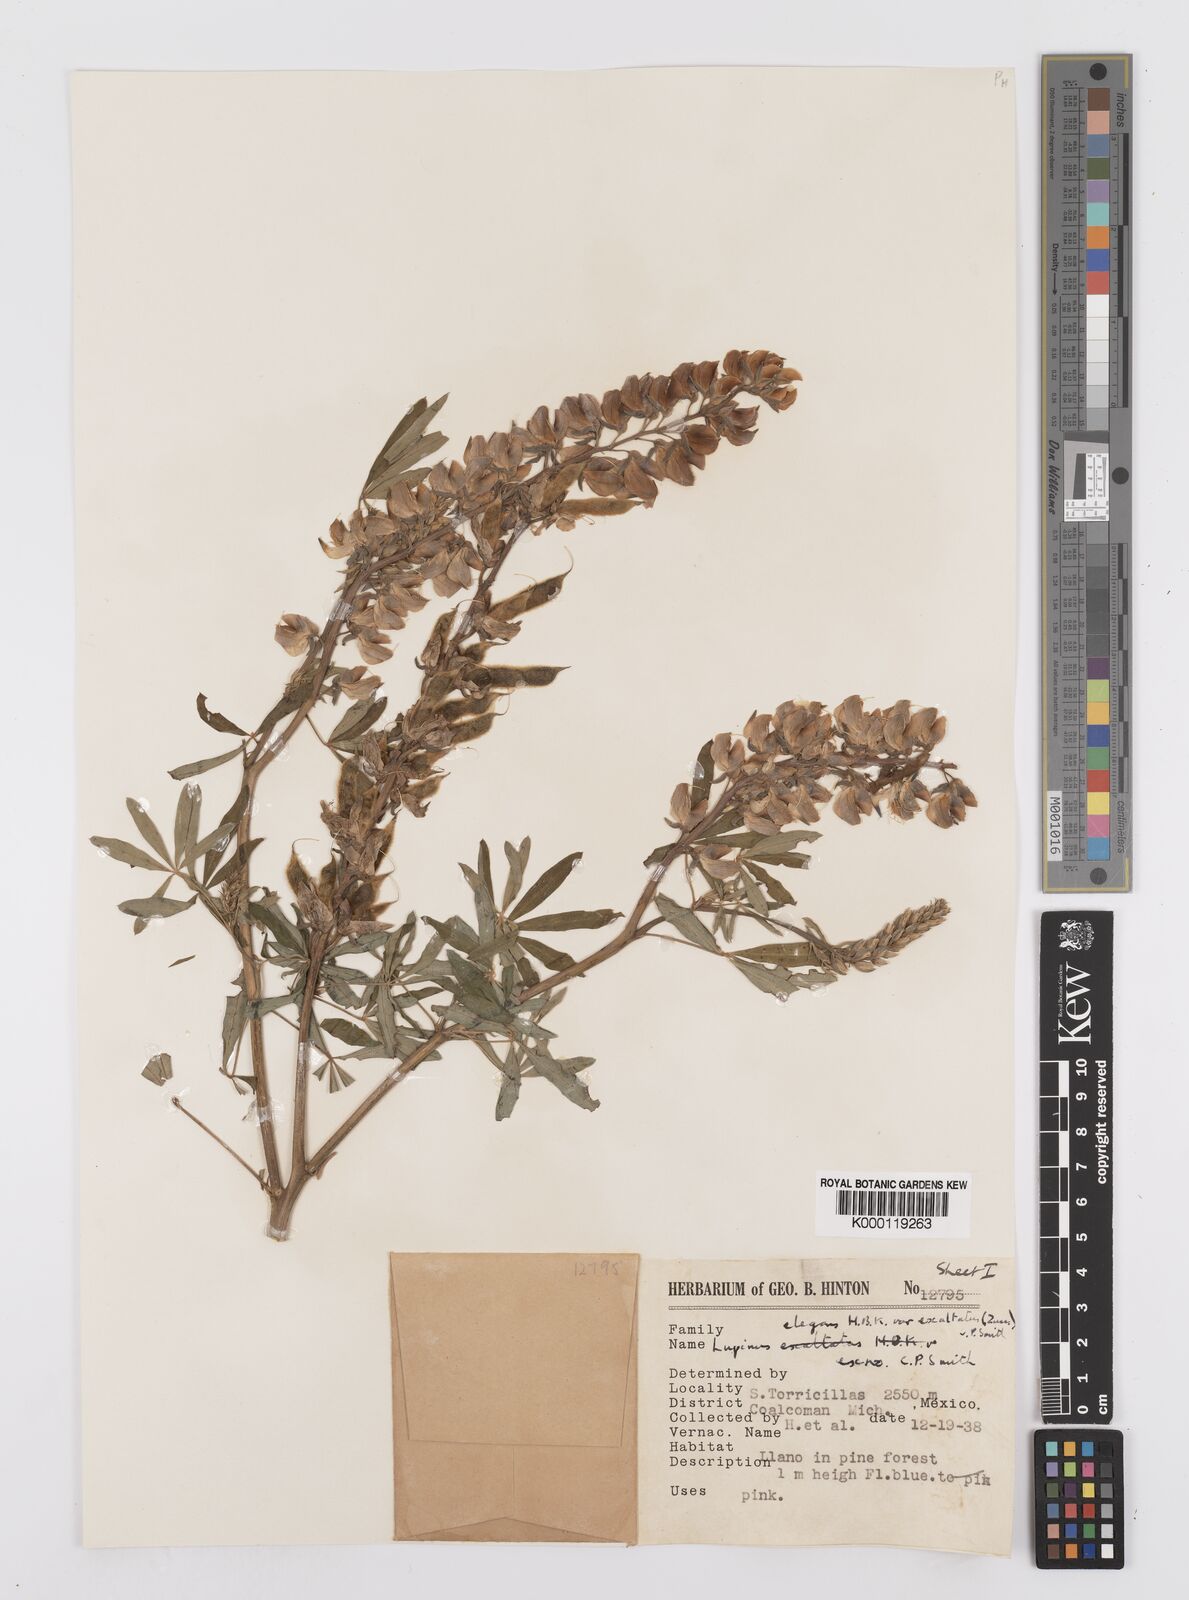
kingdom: Plantae
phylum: Tracheophyta
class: Magnoliopsida
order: Fabales
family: Fabaceae
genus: Lupinus
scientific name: Lupinus elegans
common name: Mexican lupine
